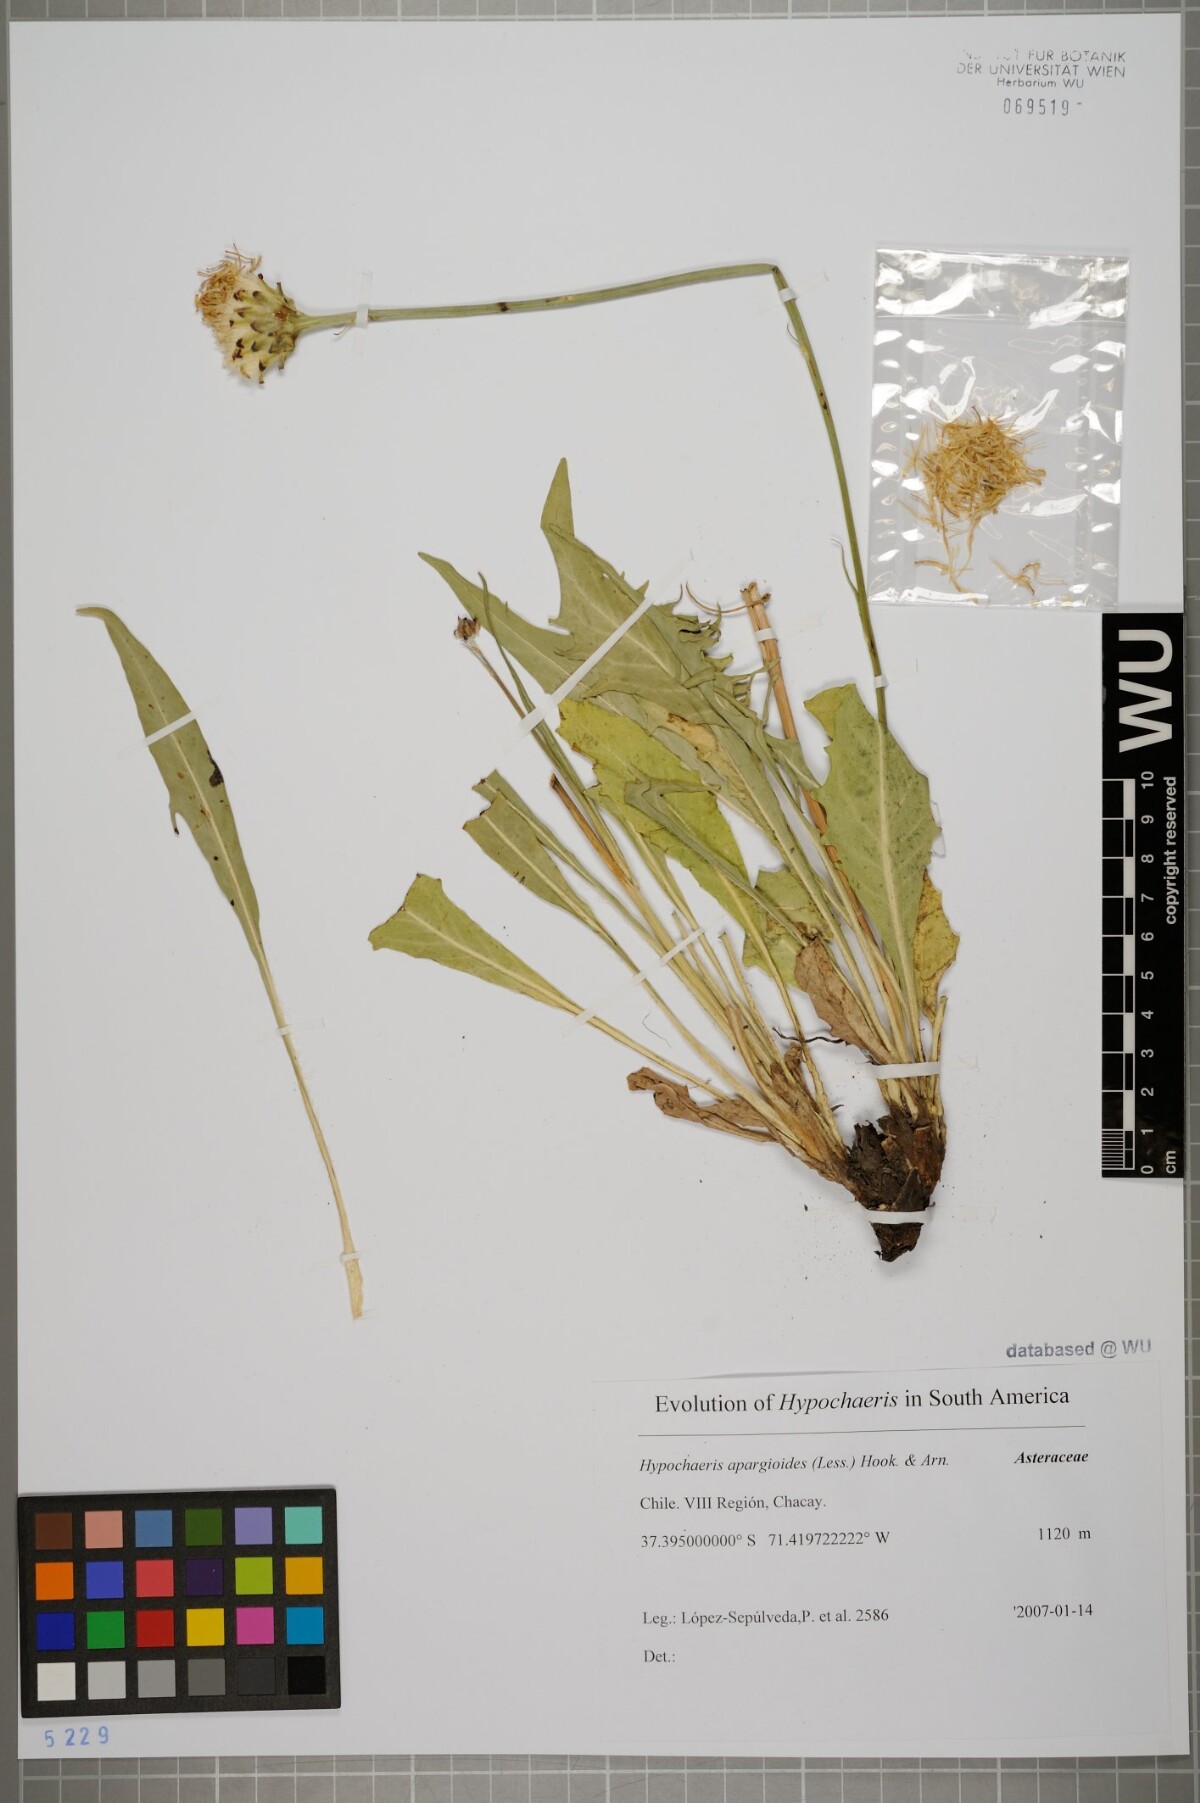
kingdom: Plantae
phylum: Tracheophyta
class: Magnoliopsida
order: Asterales
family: Asteraceae
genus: Hypochaeris
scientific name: Hypochaeris apargioides
